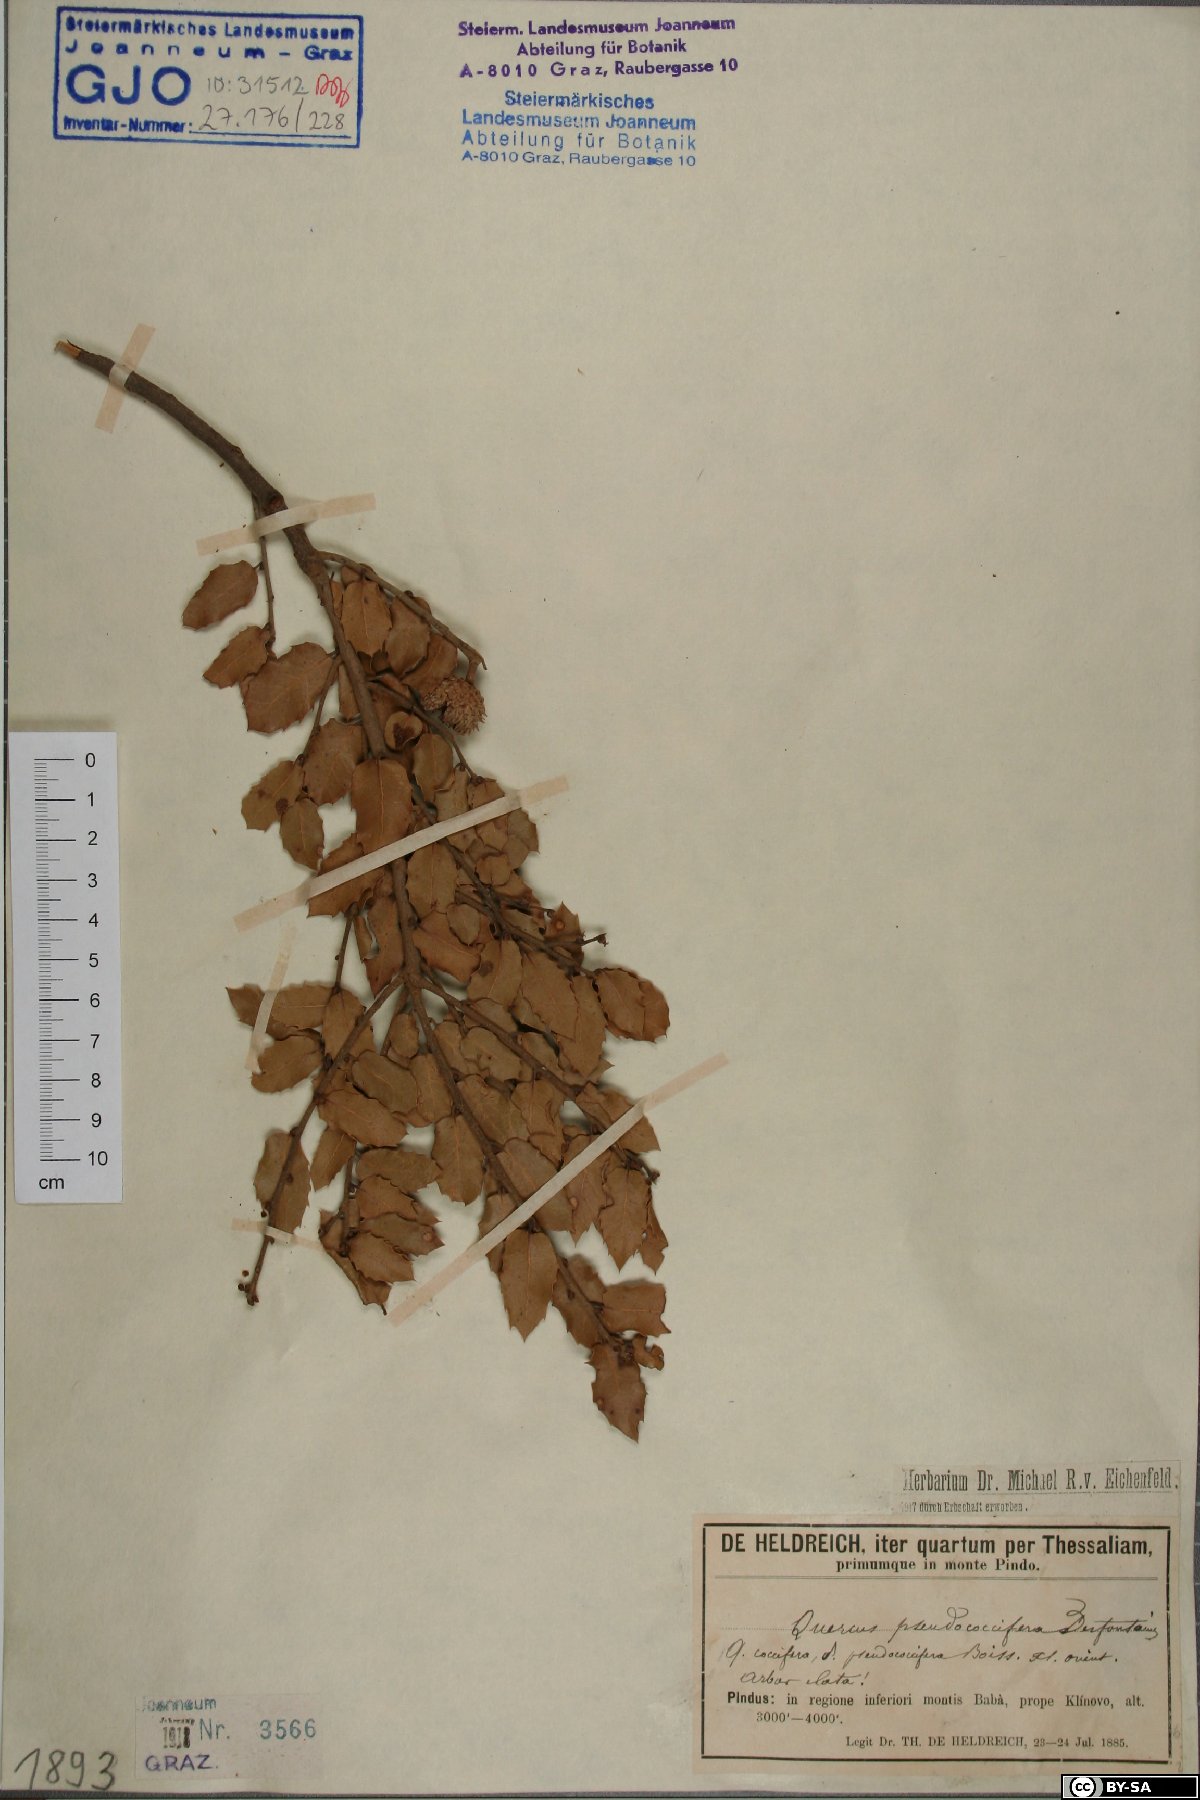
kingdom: Plantae
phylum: Tracheophyta
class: Magnoliopsida
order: Fagales
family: Fagaceae
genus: Quercus
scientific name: Quercus pseudococcifera
